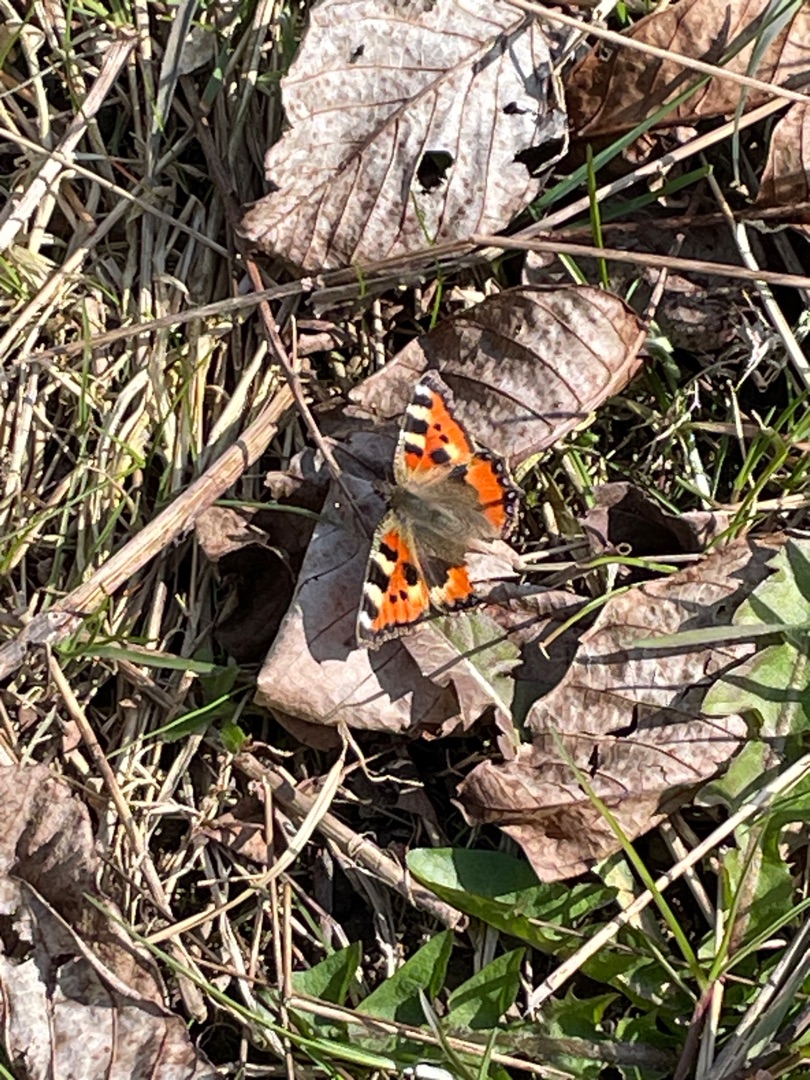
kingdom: Animalia
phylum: Arthropoda
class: Insecta
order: Lepidoptera
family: Nymphalidae
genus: Aglais
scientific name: Aglais urticae
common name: Nældens takvinge
